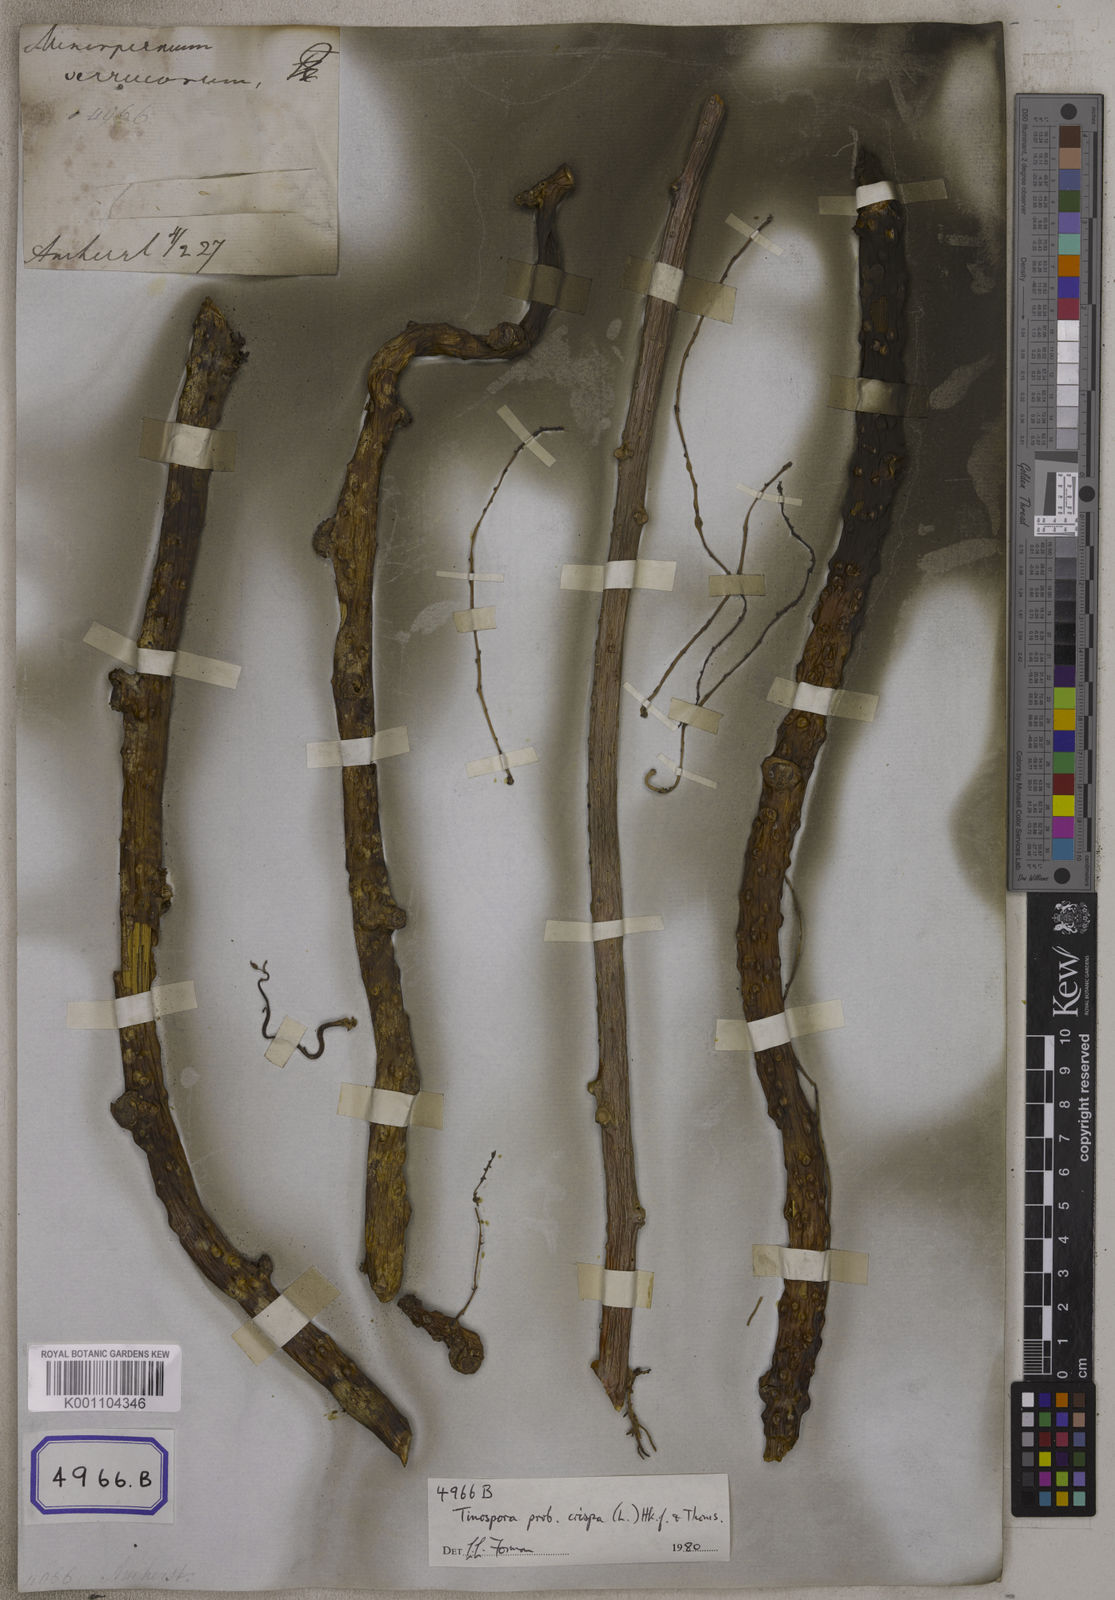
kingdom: Plantae
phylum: Tracheophyta
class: Magnoliopsida
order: Ranunculales
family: Menispermaceae
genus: Tinospora
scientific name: Tinospora crispa
